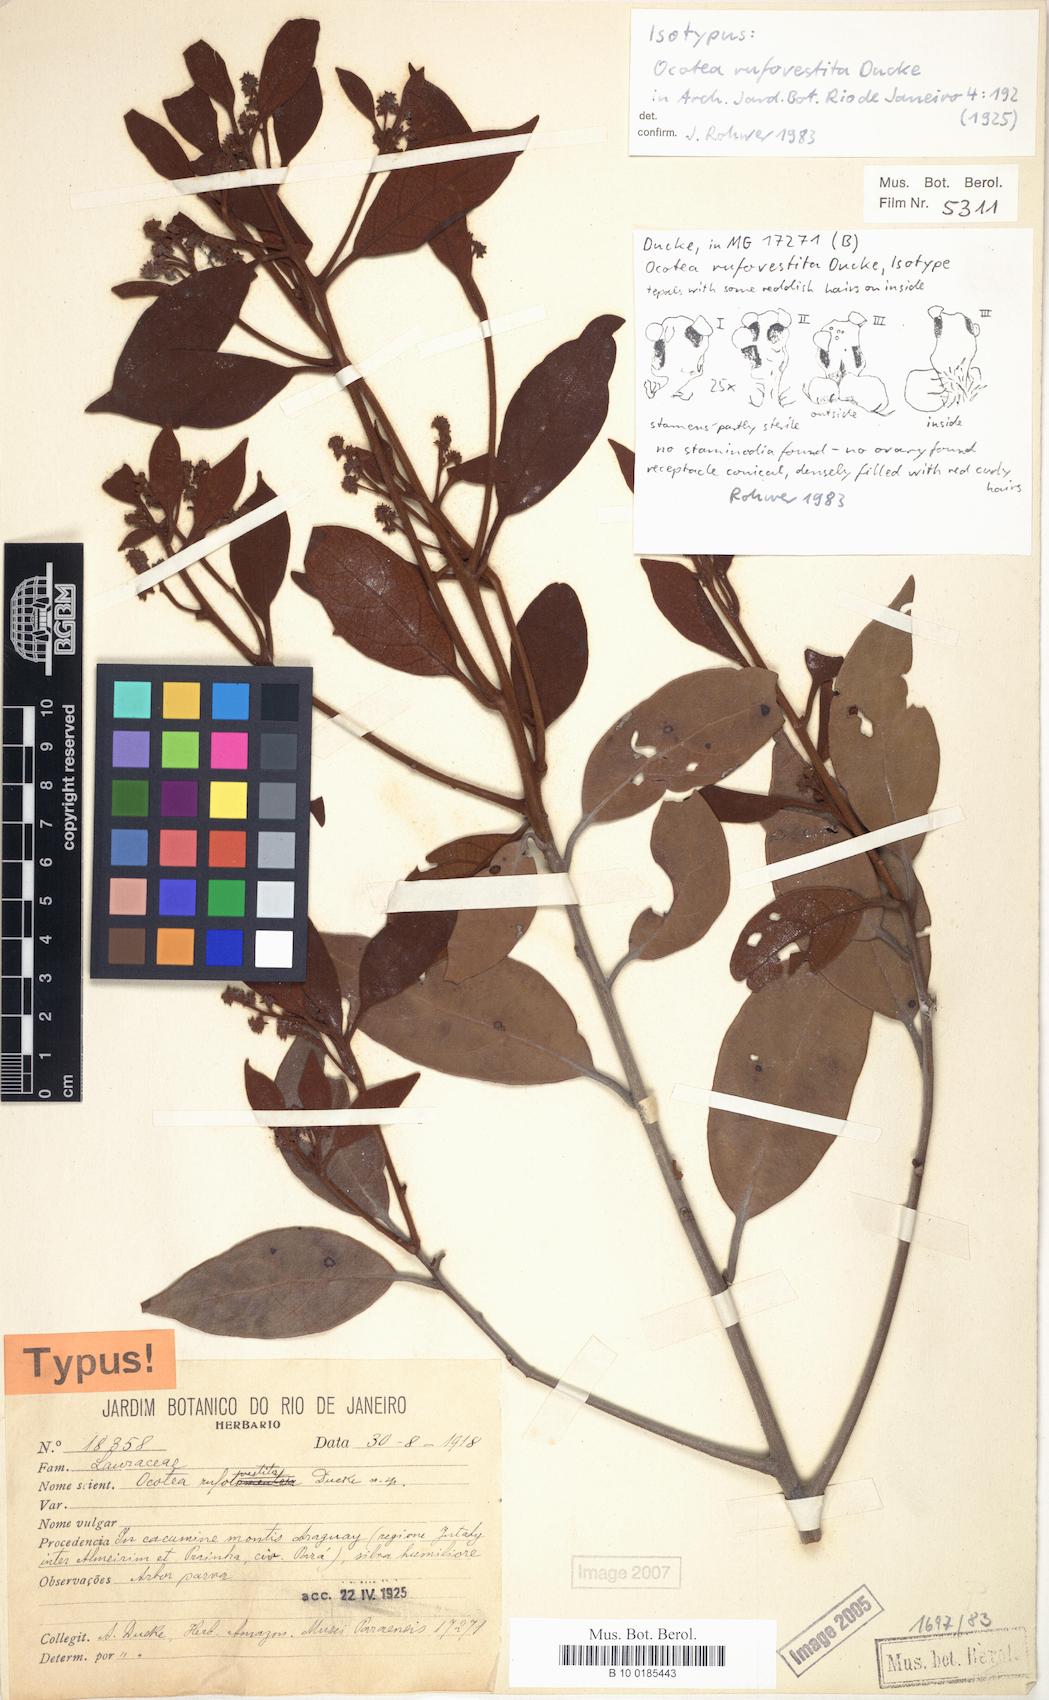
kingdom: Plantae
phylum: Tracheophyta
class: Magnoliopsida
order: Laurales
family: Lauraceae
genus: Ocotea
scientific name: Ocotea rufovestita
